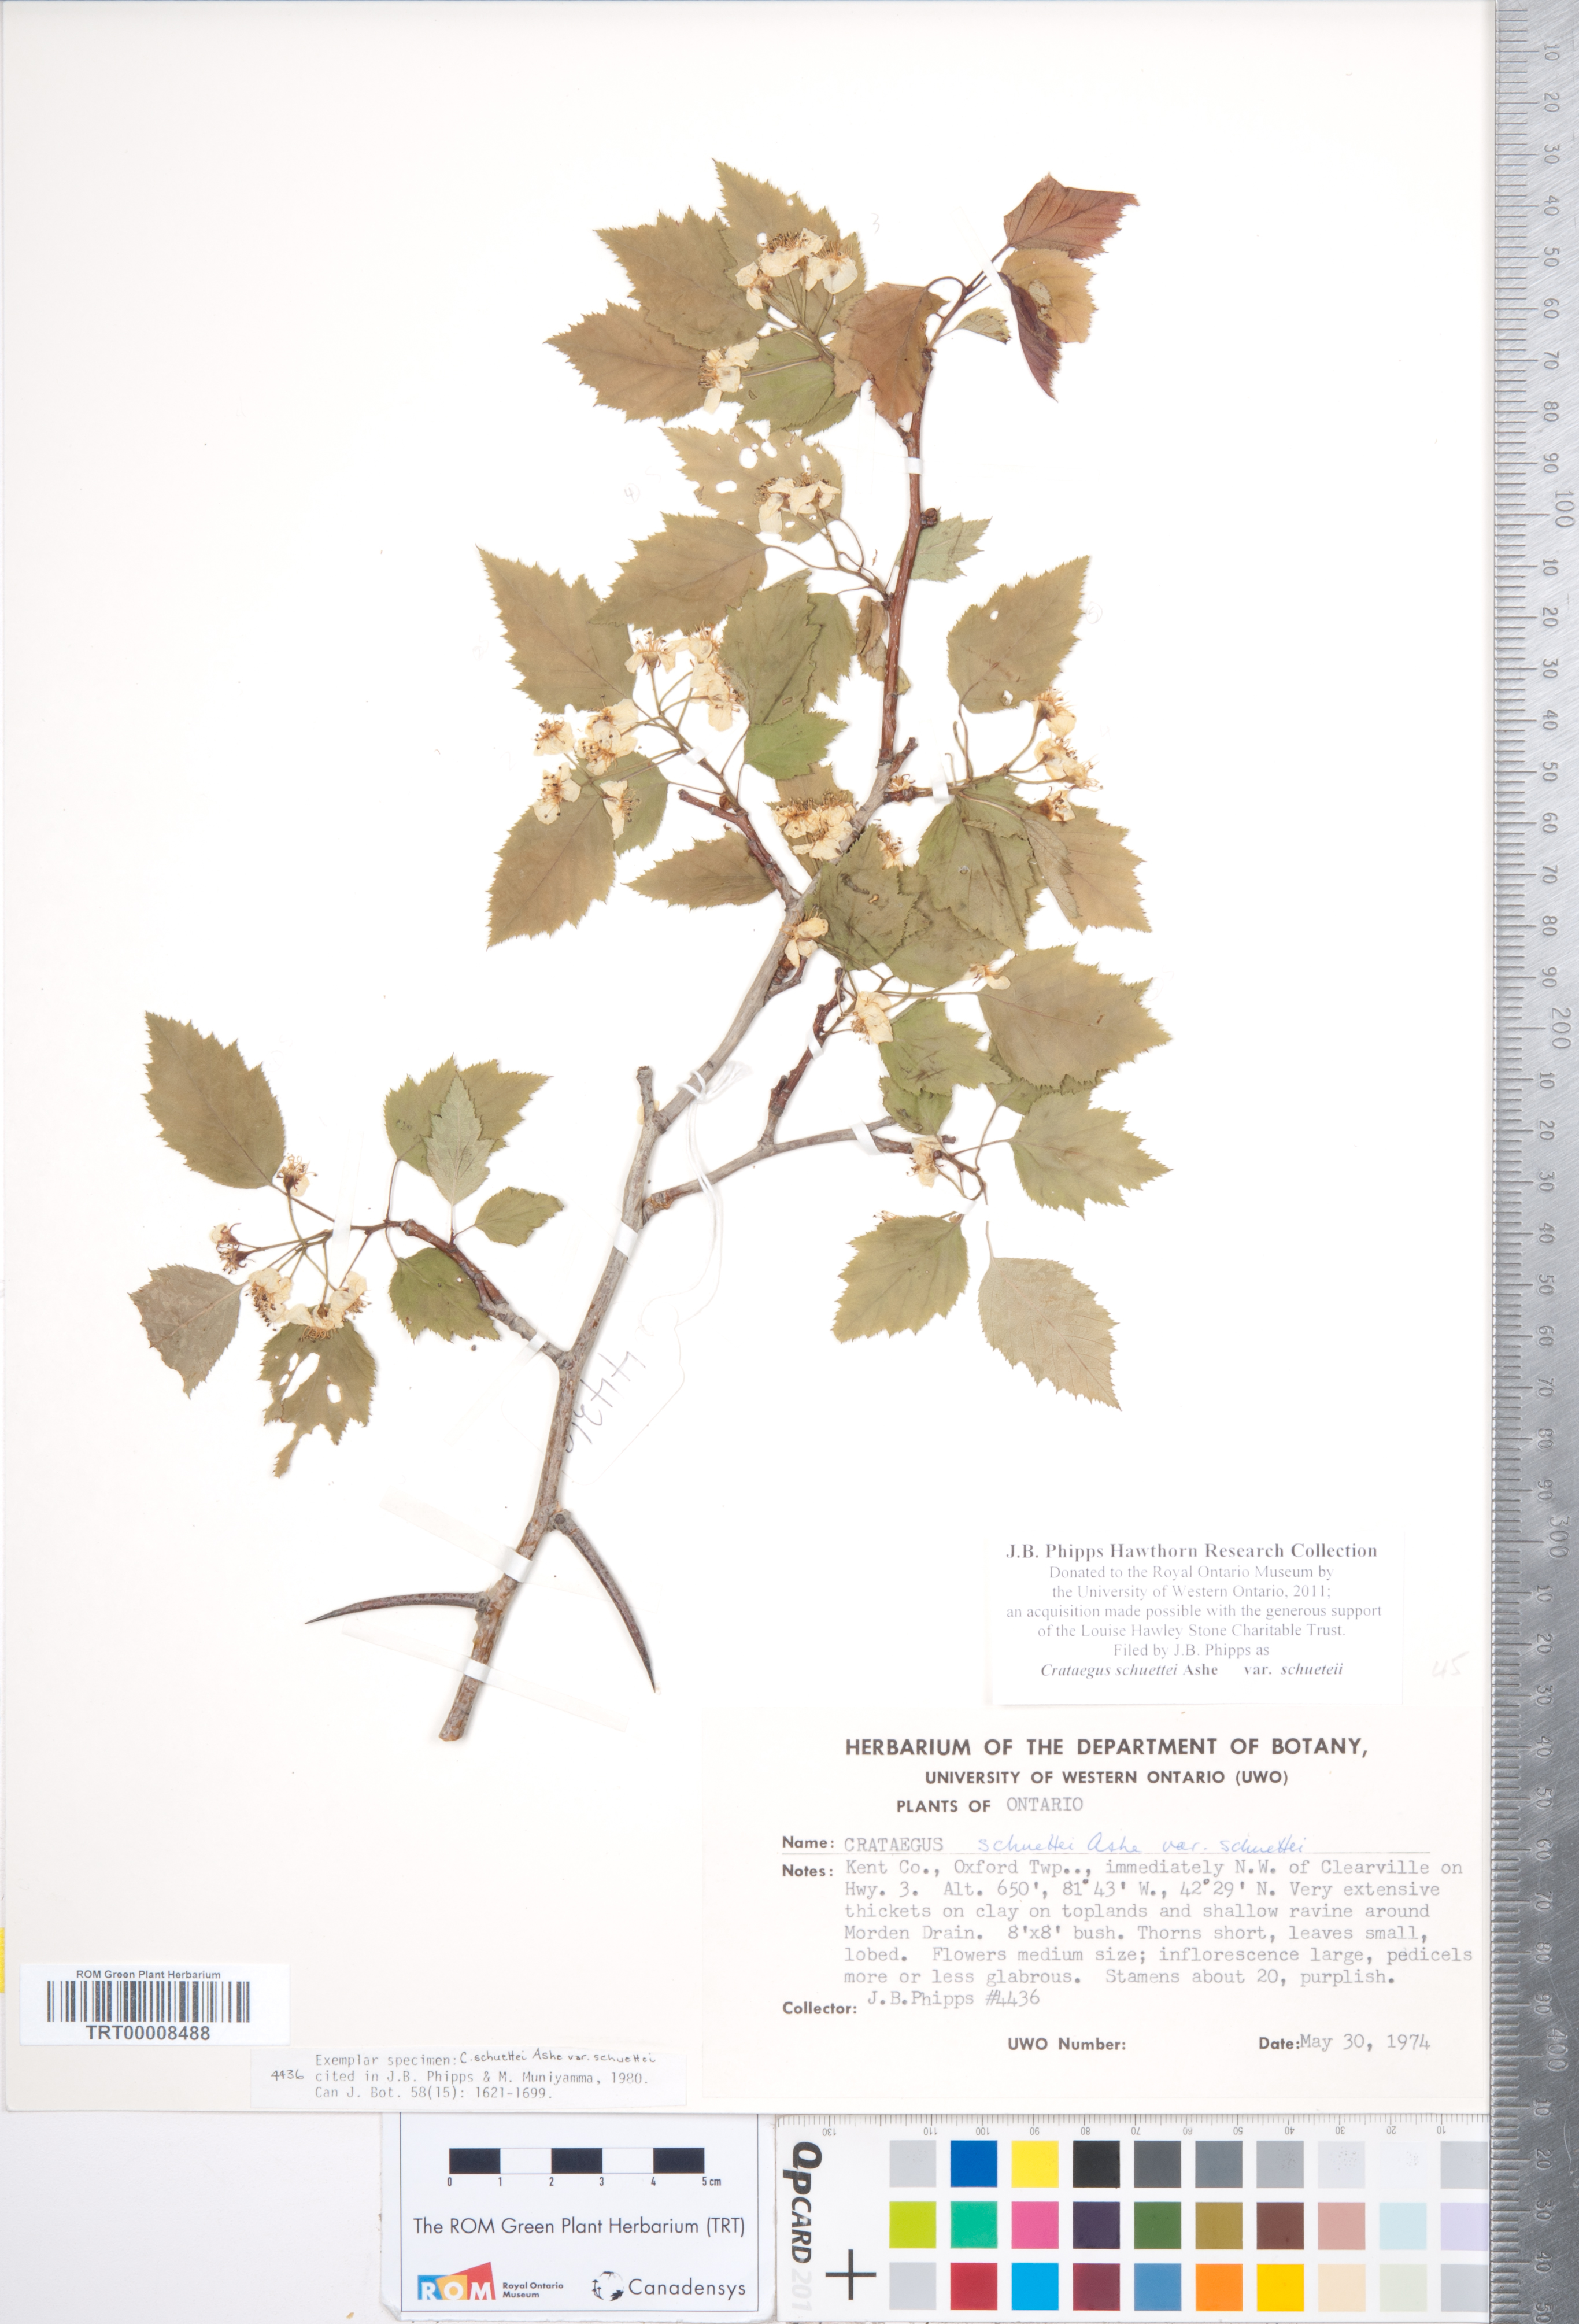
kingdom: Plantae
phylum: Tracheophyta
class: Magnoliopsida
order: Rosales
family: Rosaceae
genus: Crataegus
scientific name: Crataegus schuettei
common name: Schuette's hawthorn
